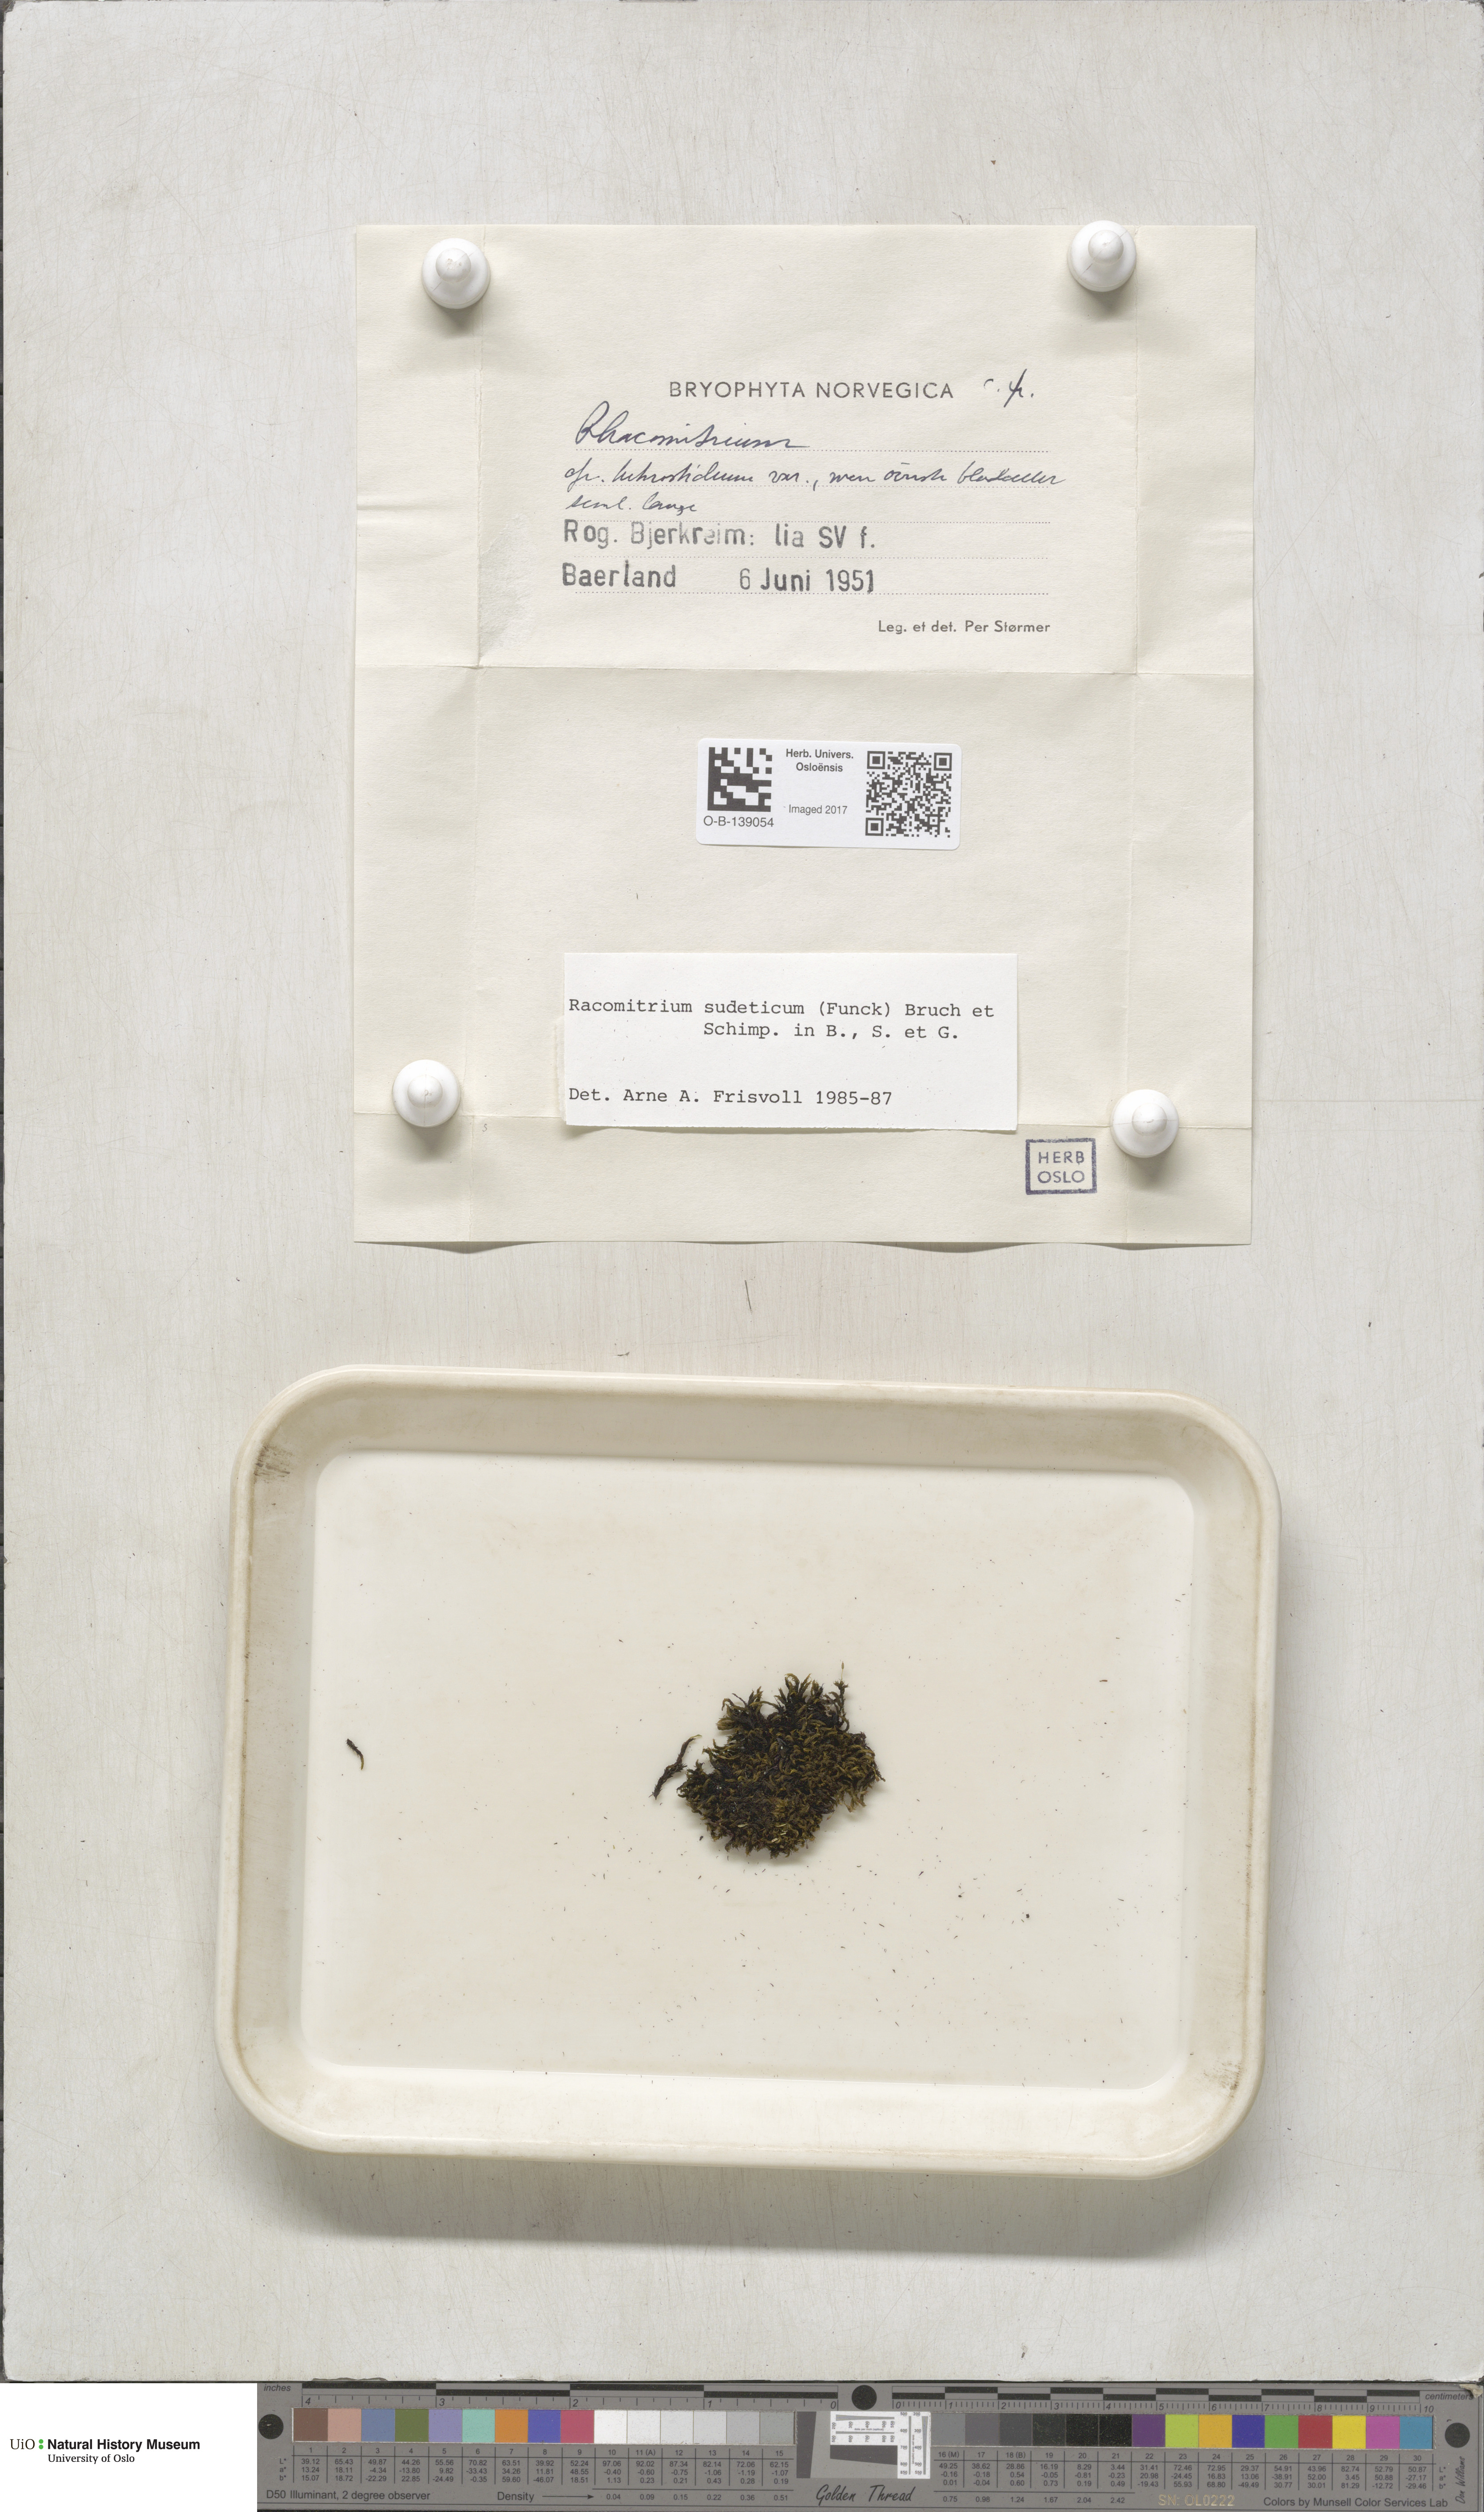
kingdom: Plantae
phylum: Bryophyta
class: Bryopsida
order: Grimmiales
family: Grimmiaceae
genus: Bucklandiella
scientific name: Bucklandiella sudetica
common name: Slender fringe-moss
